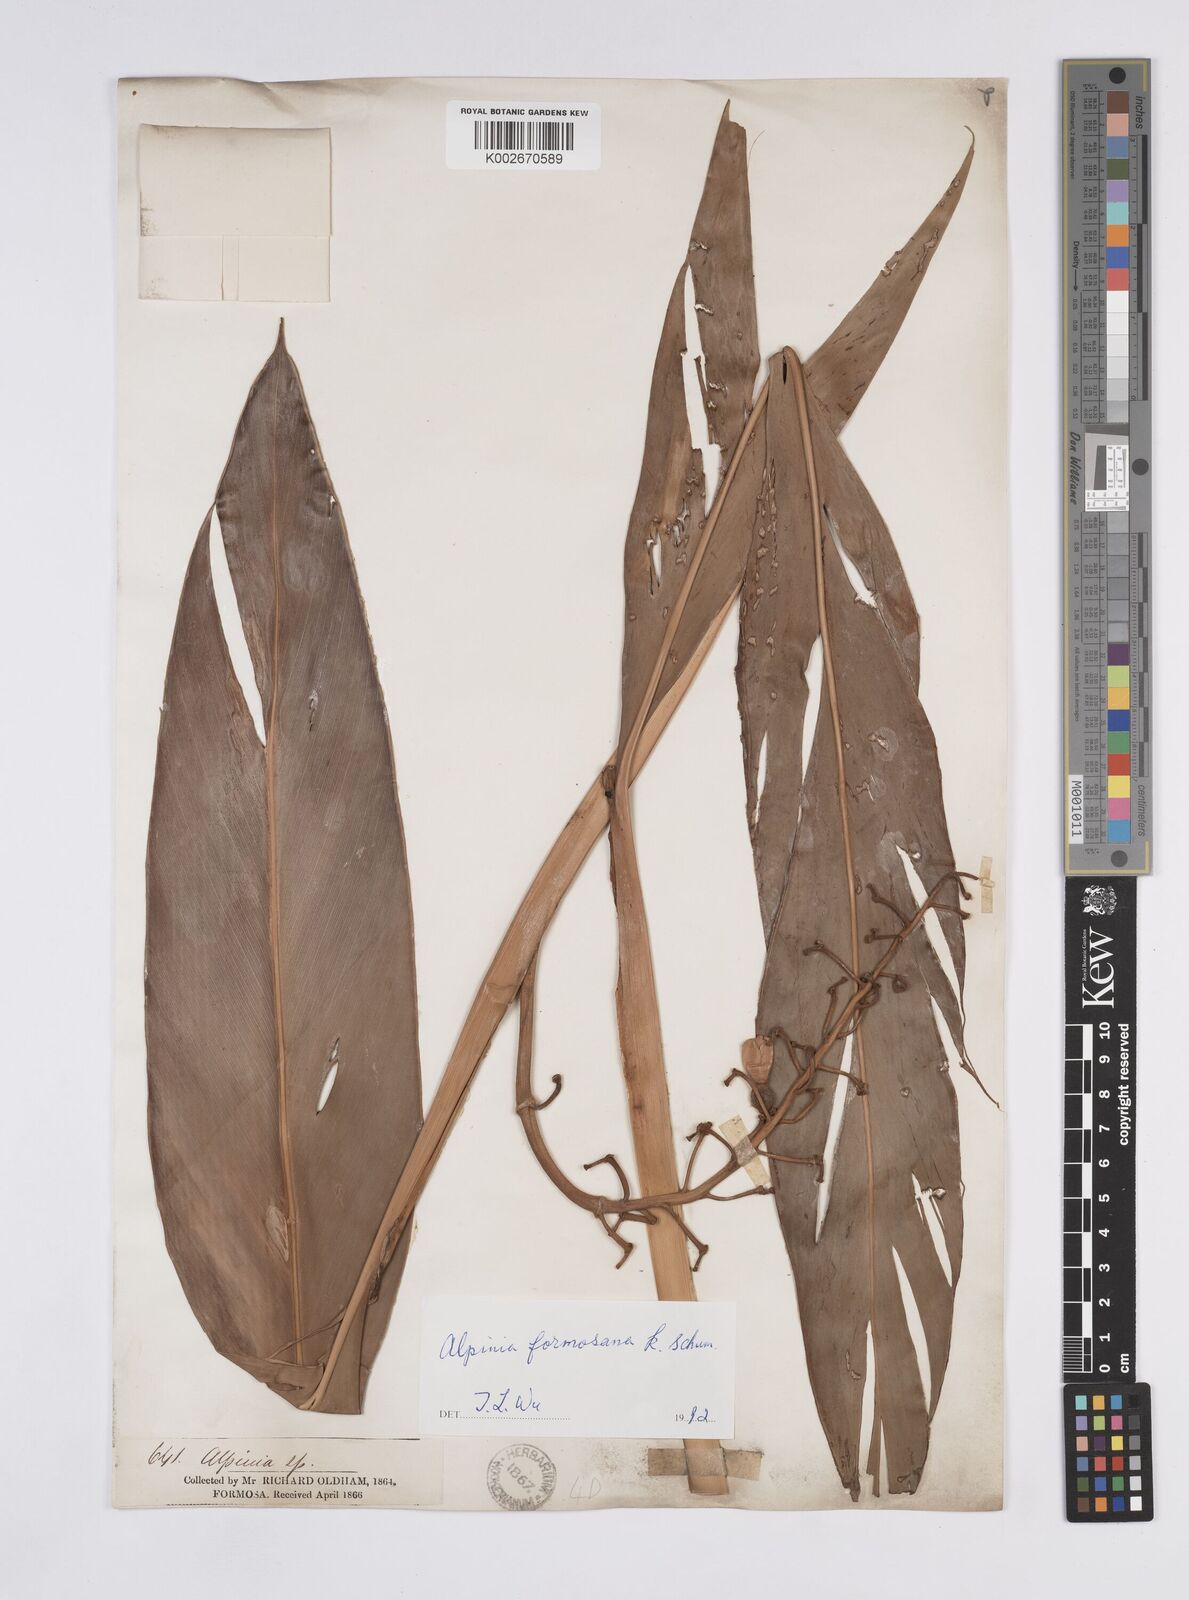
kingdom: Plantae
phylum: Tracheophyta
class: Liliopsida
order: Zingiberales
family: Zingiberaceae
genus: Alpinia
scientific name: Alpinia formosana
